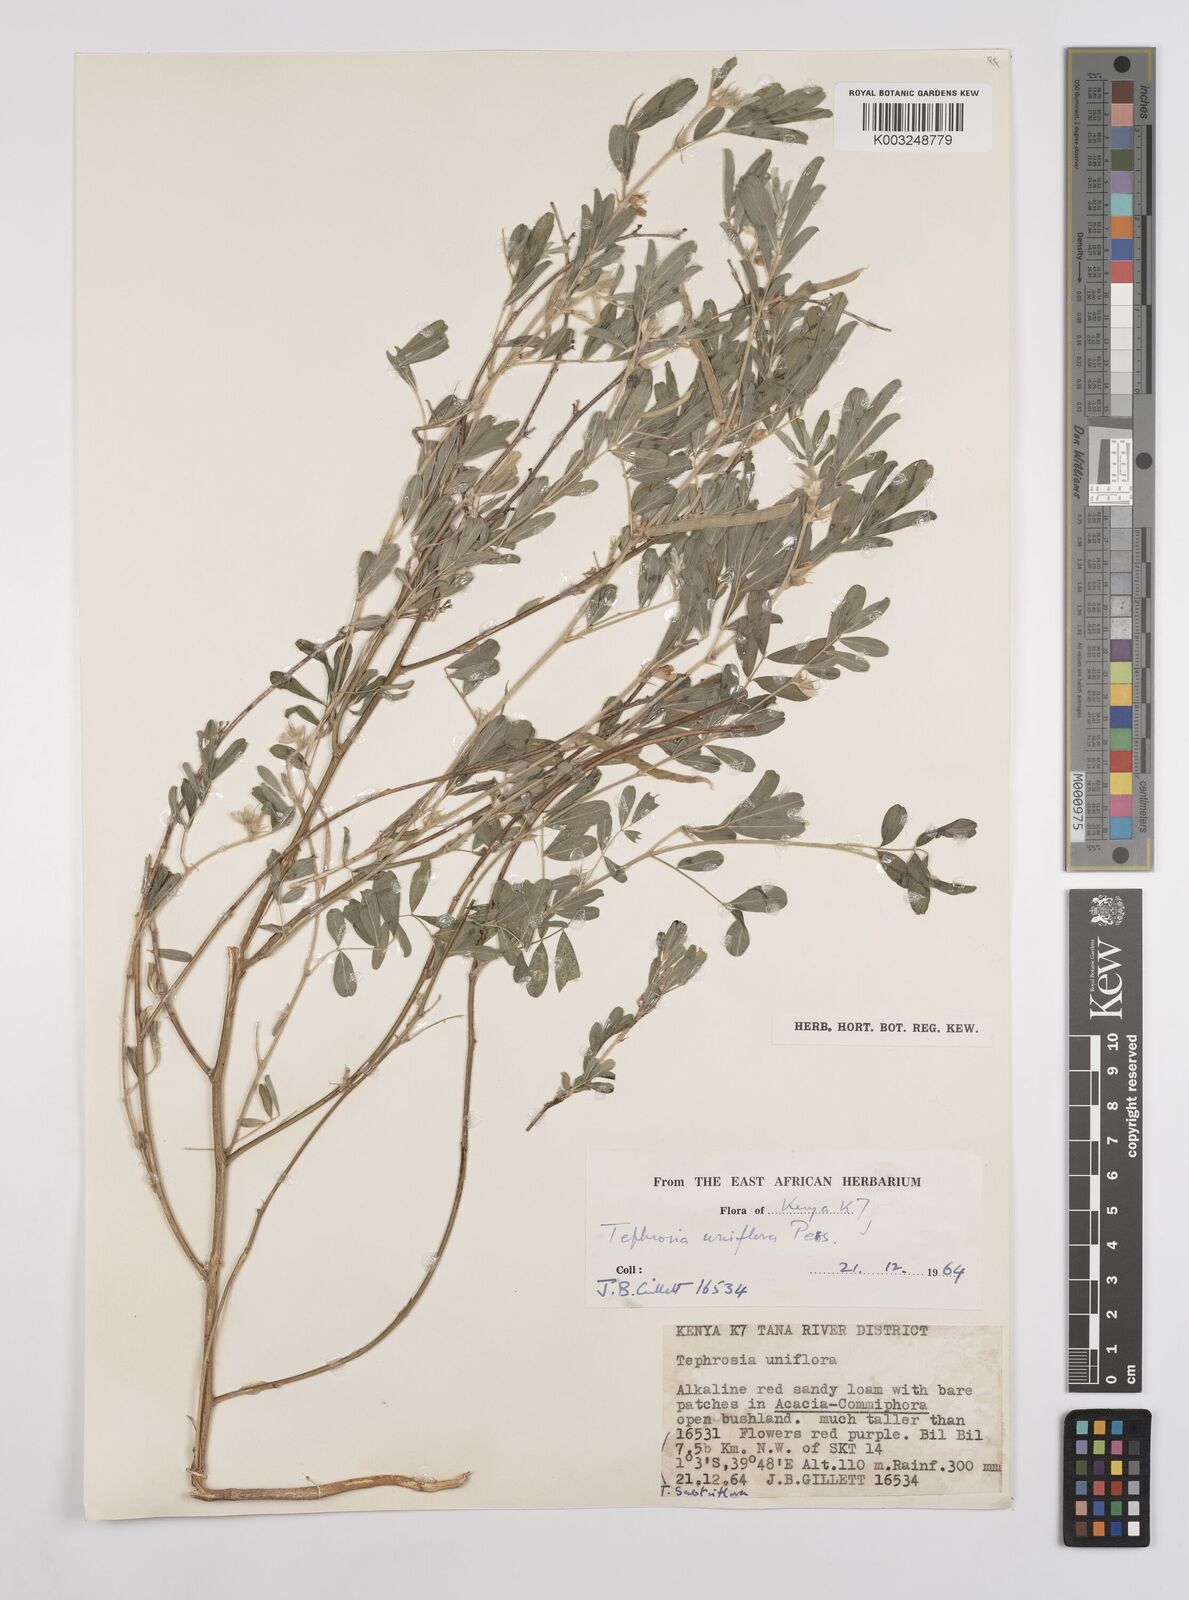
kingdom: Plantae
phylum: Tracheophyta
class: Magnoliopsida
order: Fabales
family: Fabaceae
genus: Tephrosia
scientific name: Tephrosia uniflora
